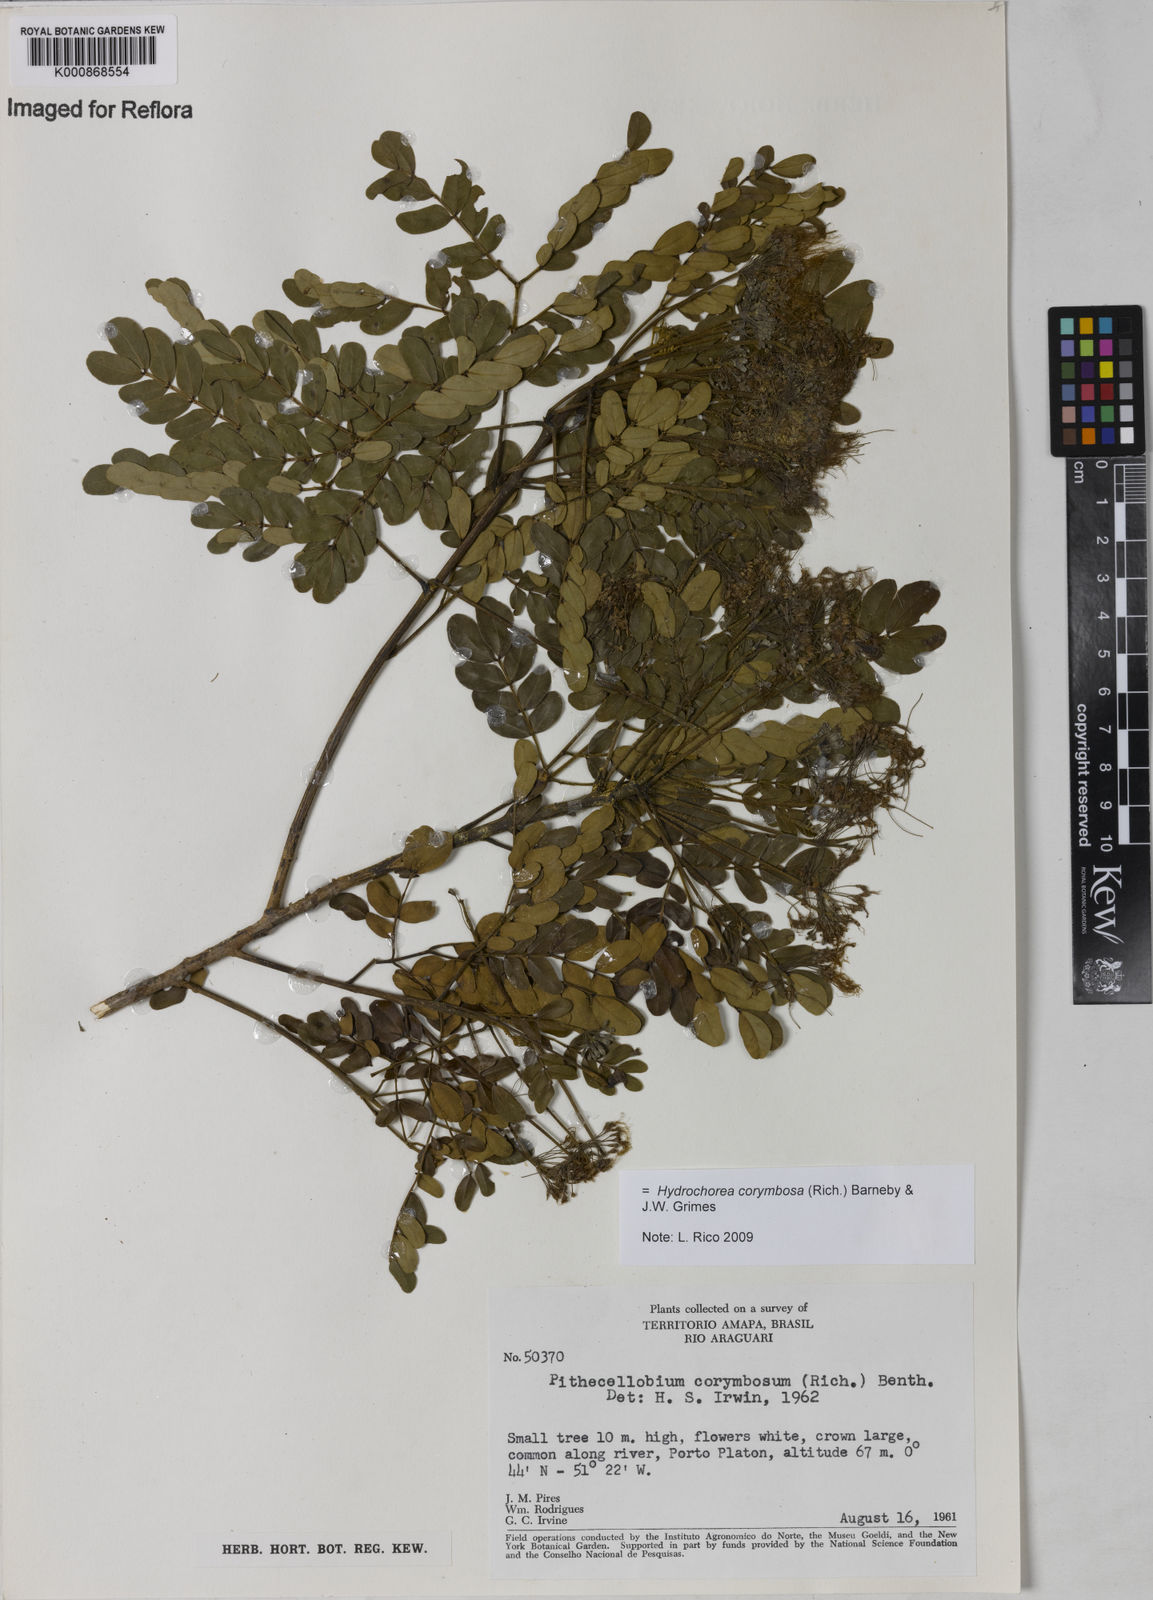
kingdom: Plantae
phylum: Tracheophyta
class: Magnoliopsida
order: Fabales
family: Fabaceae
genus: Hydrochorea
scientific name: Hydrochorea corymbosa
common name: Swamp manariballi
